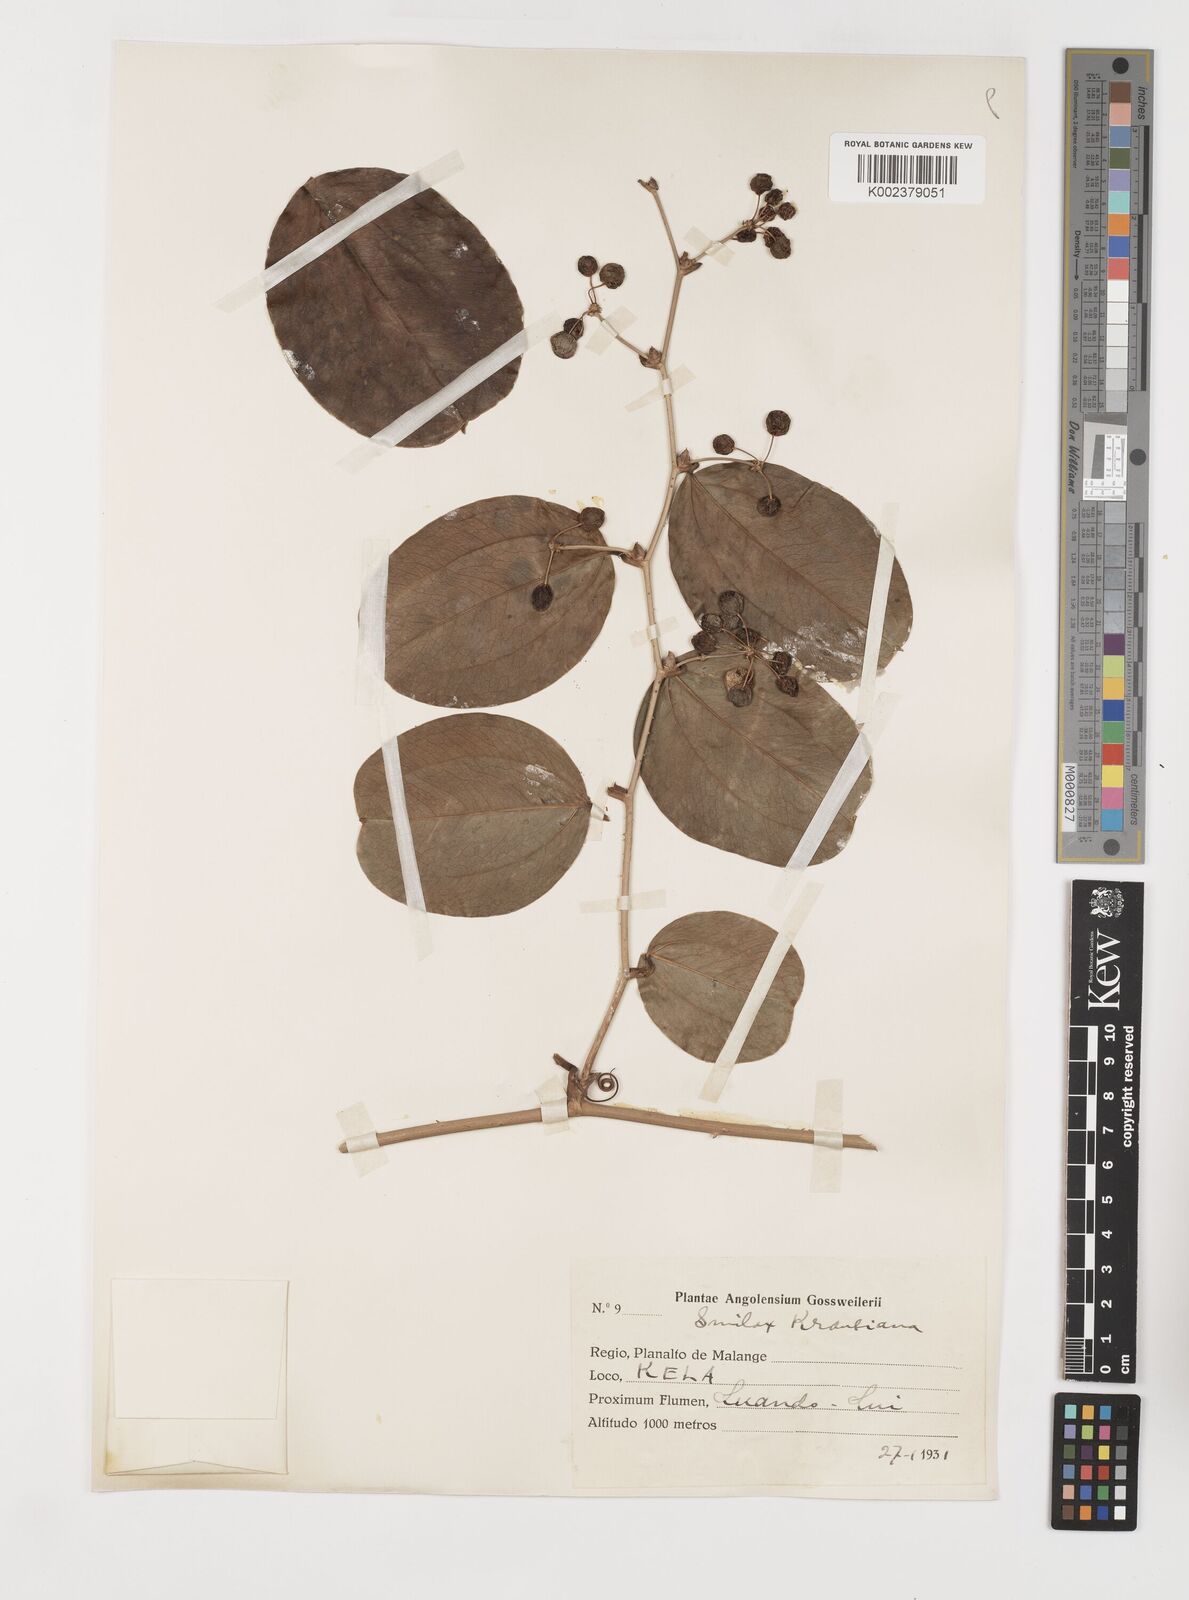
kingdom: Plantae
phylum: Tracheophyta
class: Liliopsida
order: Liliales
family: Smilacaceae
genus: Smilax
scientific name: Smilax anceps
